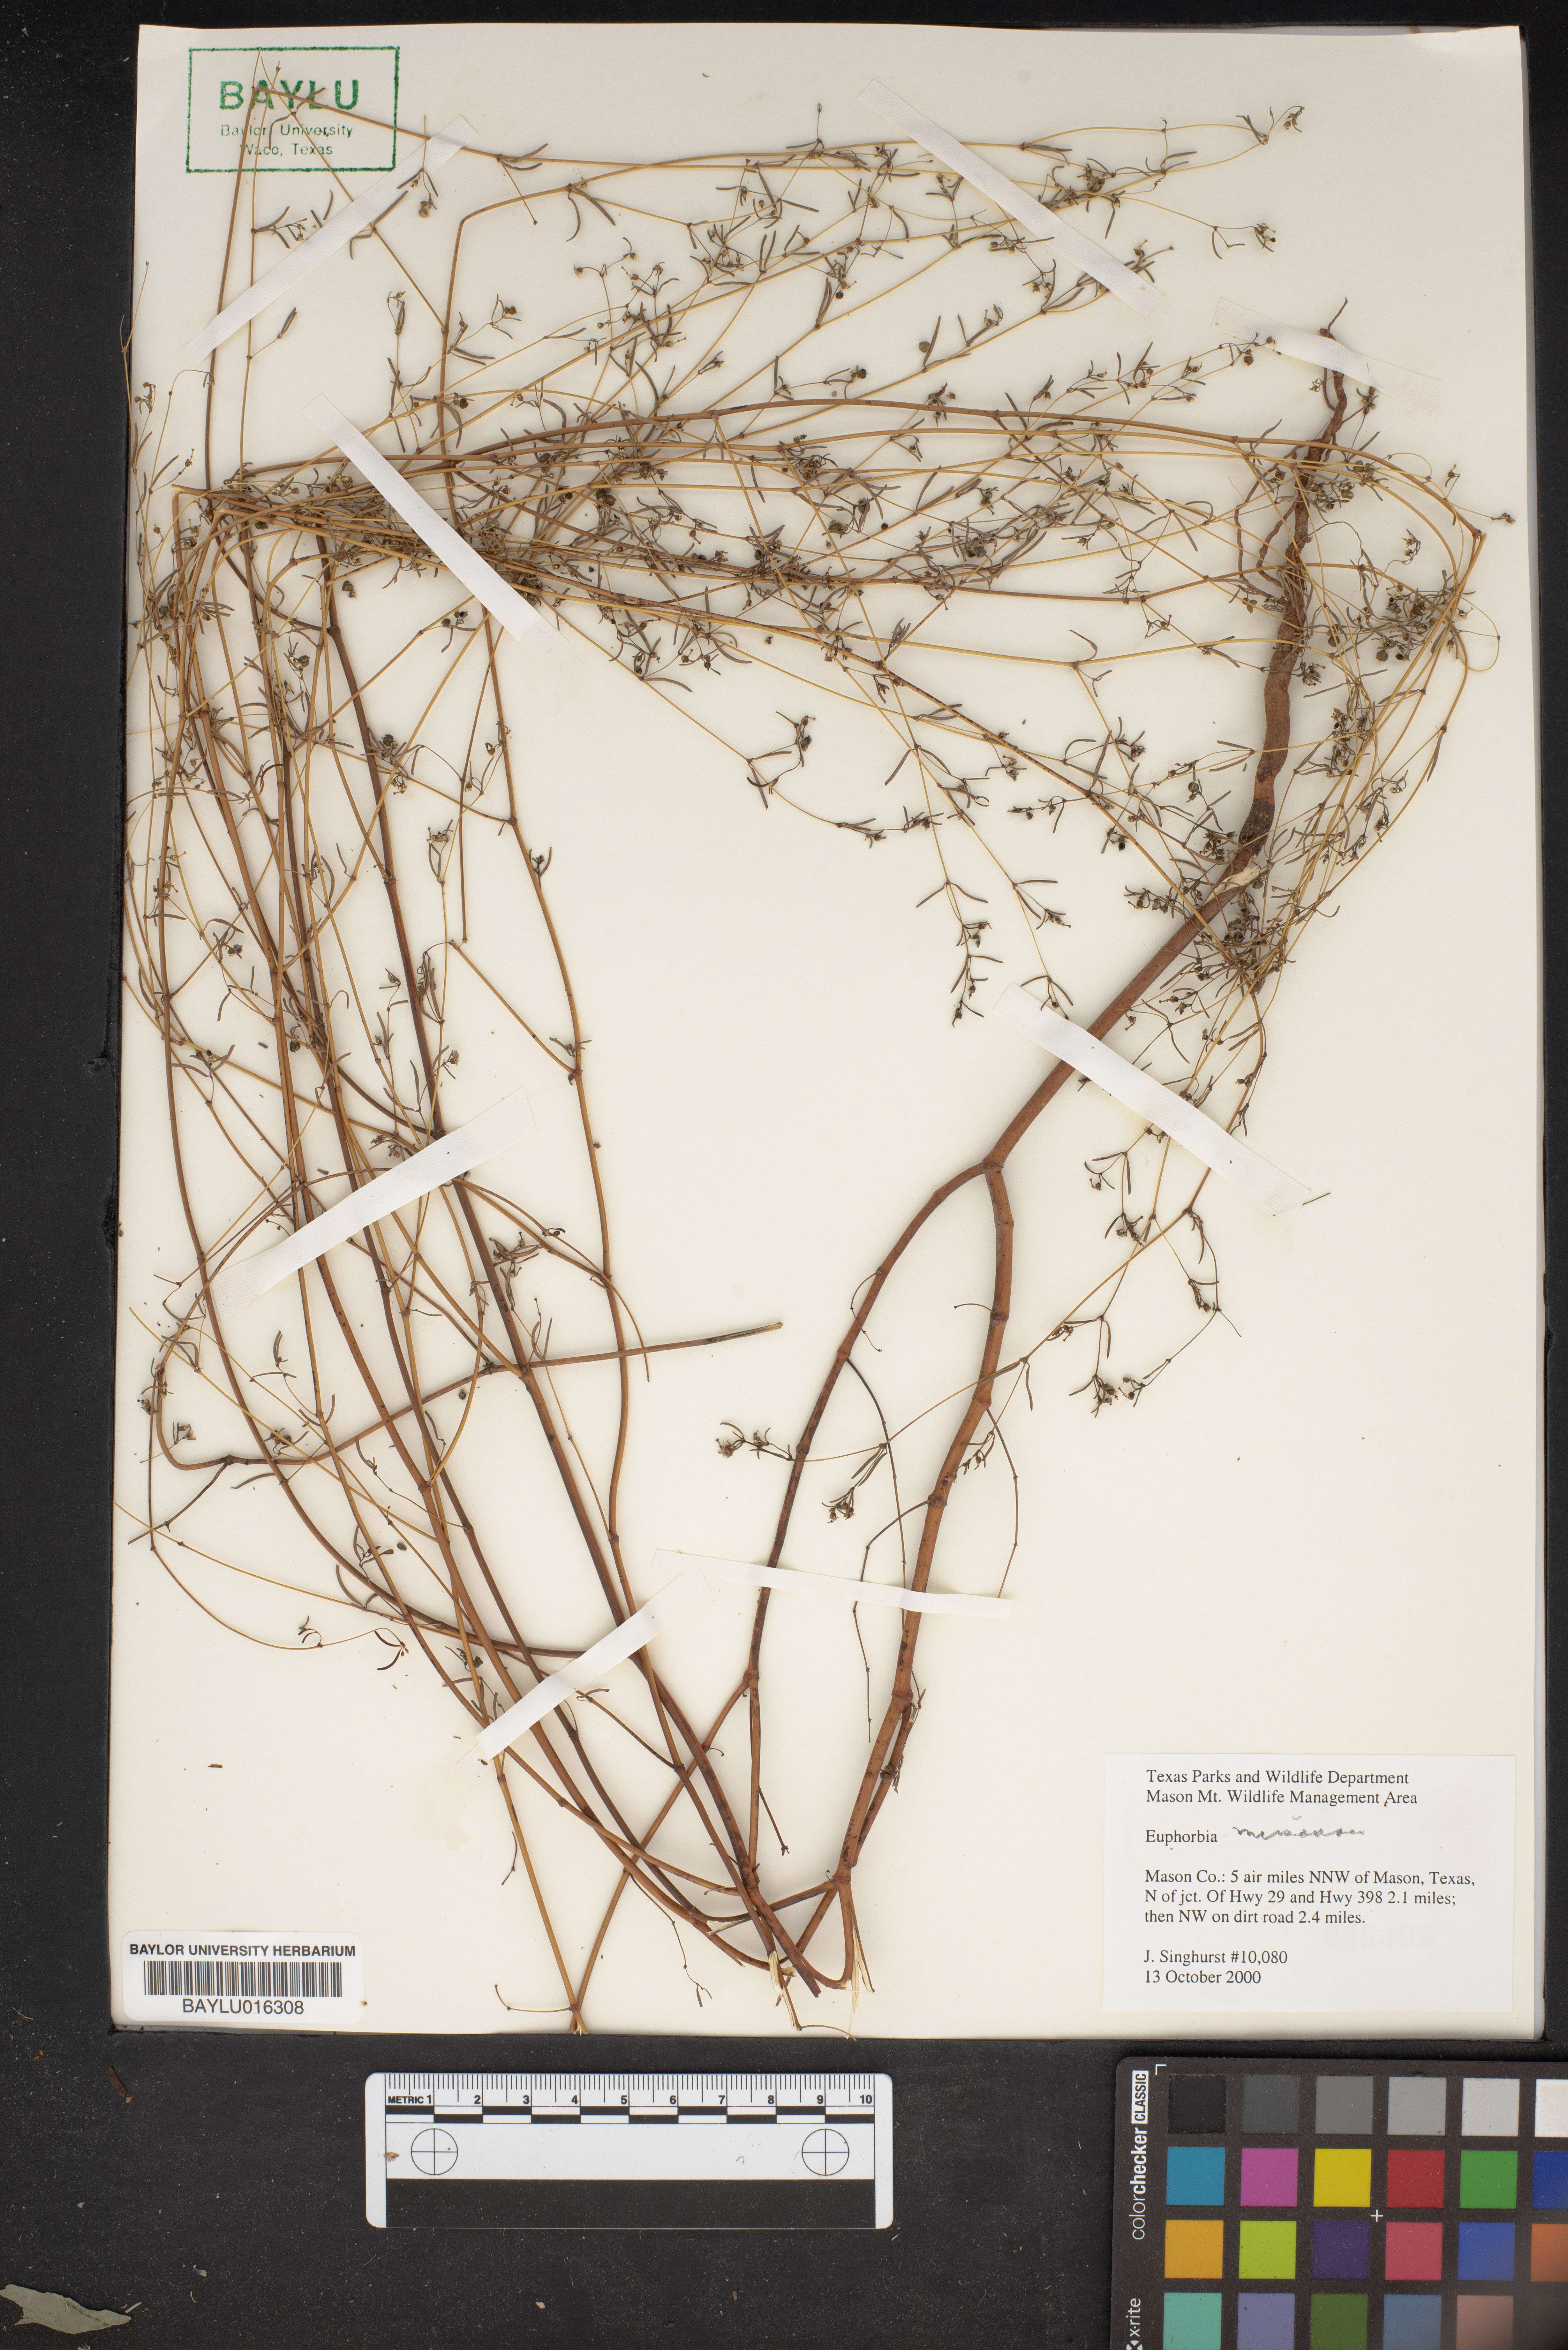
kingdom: Plantae
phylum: Tracheophyta
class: Magnoliopsida
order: Malpighiales
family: Euphorbiaceae
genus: Euphorbia
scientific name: Euphorbia misera
